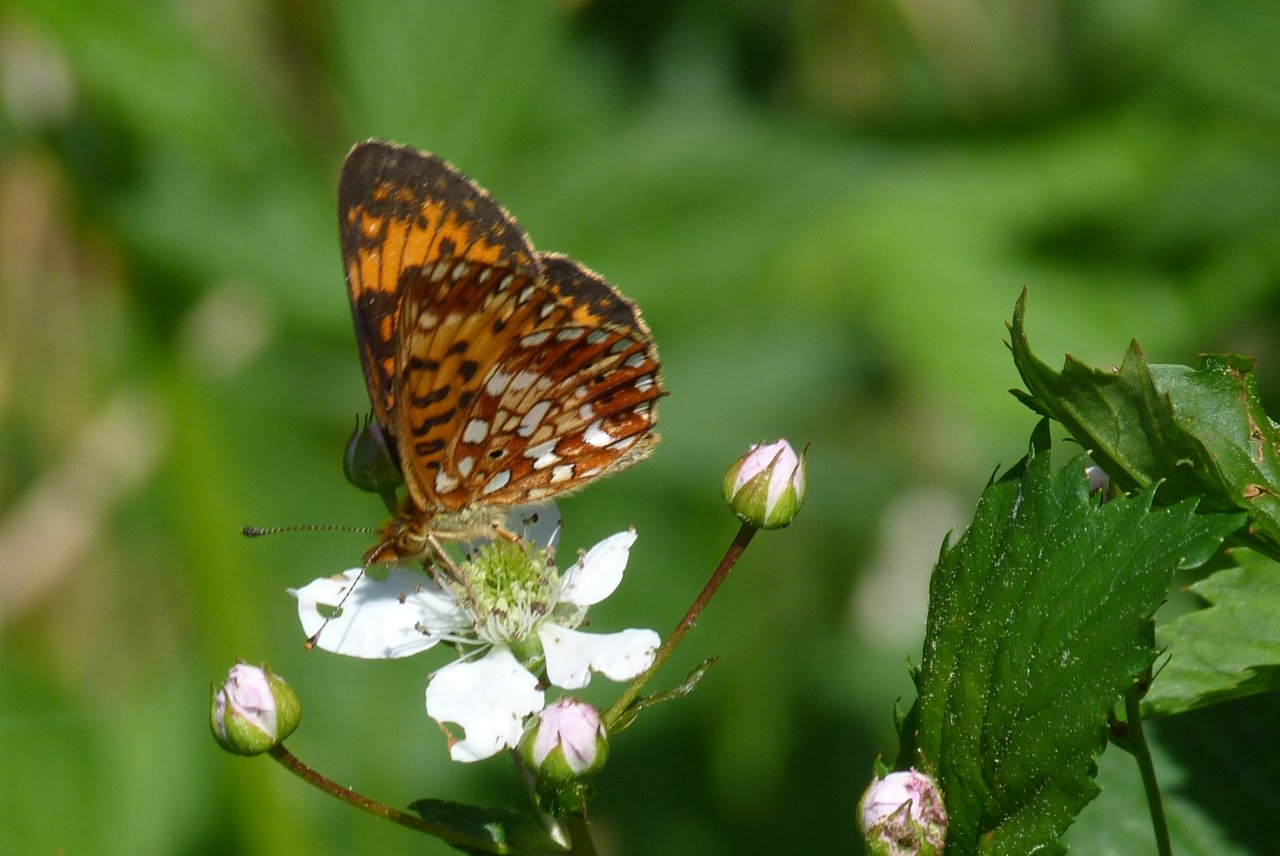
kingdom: Animalia
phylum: Arthropoda
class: Insecta
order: Lepidoptera
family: Nymphalidae
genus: Boloria
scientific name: Boloria selene
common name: Silver-bordered Fritillary
